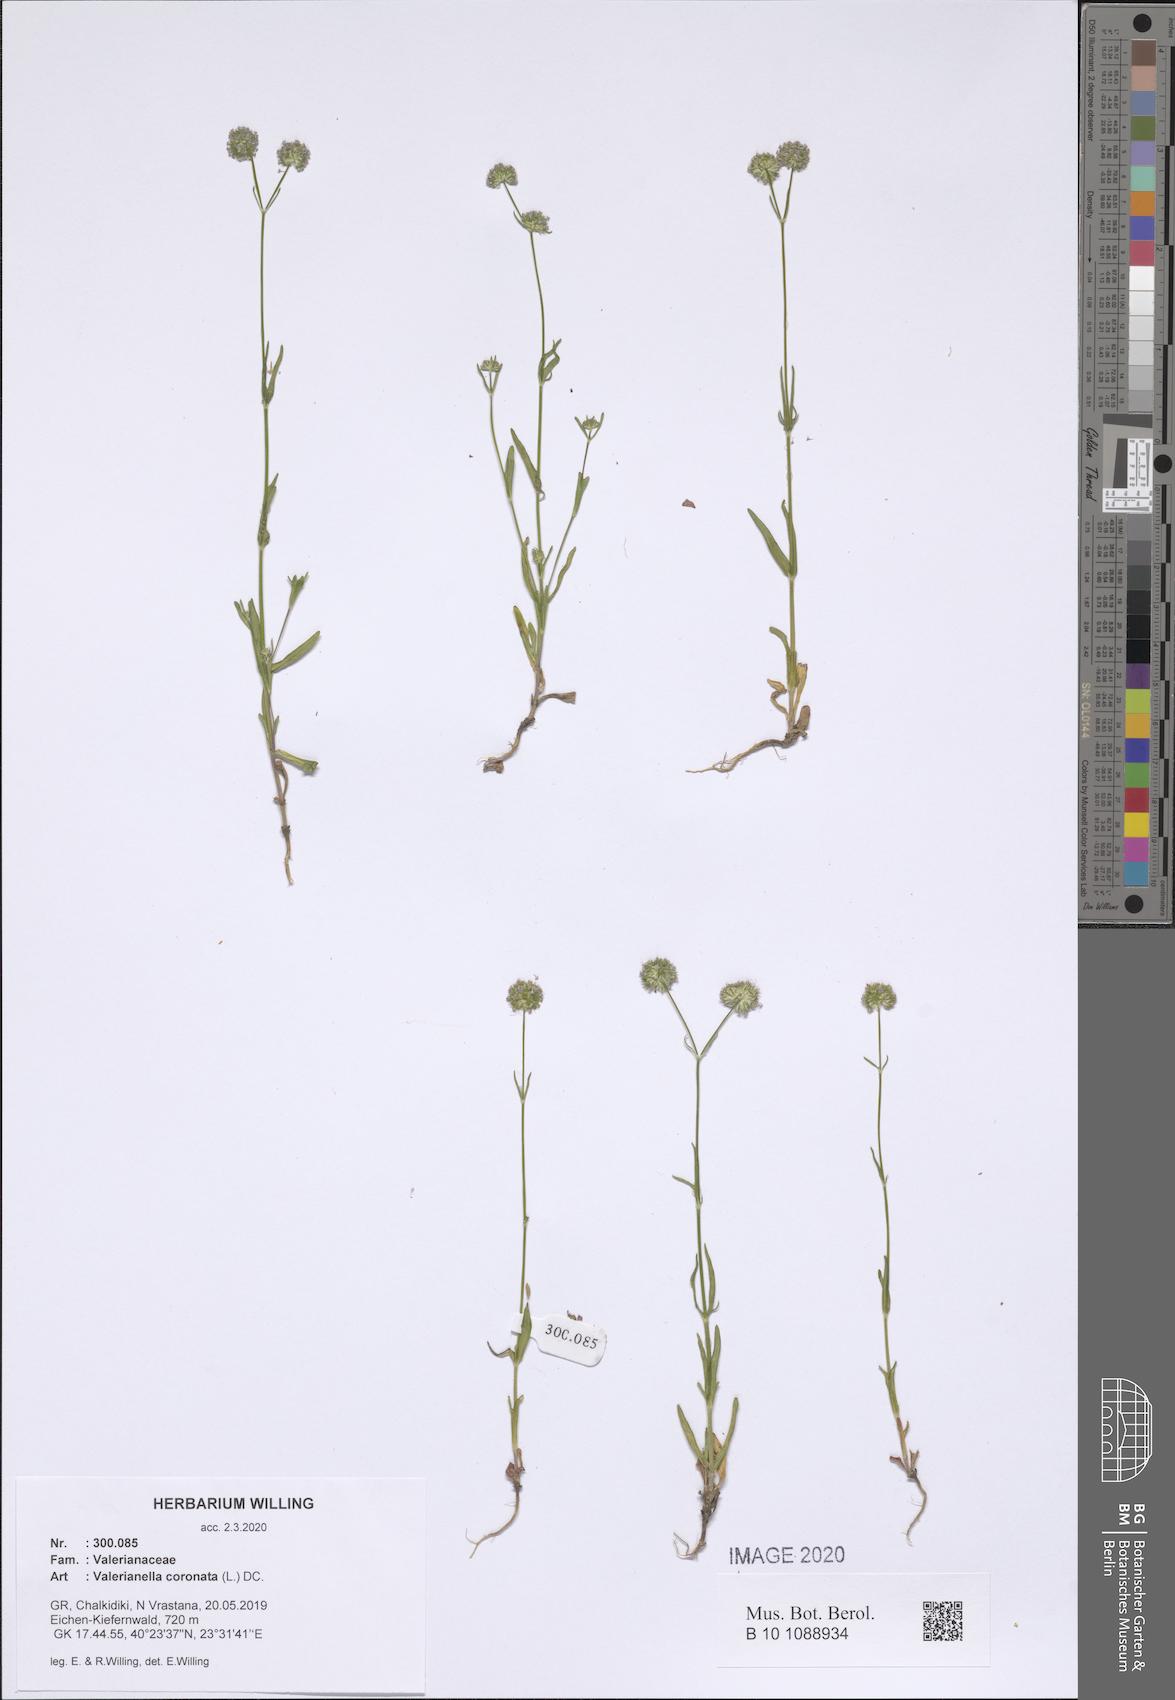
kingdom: Plantae
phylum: Tracheophyta
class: Magnoliopsida
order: Dipsacales
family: Caprifoliaceae
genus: Valerianella
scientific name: Valerianella coronata
